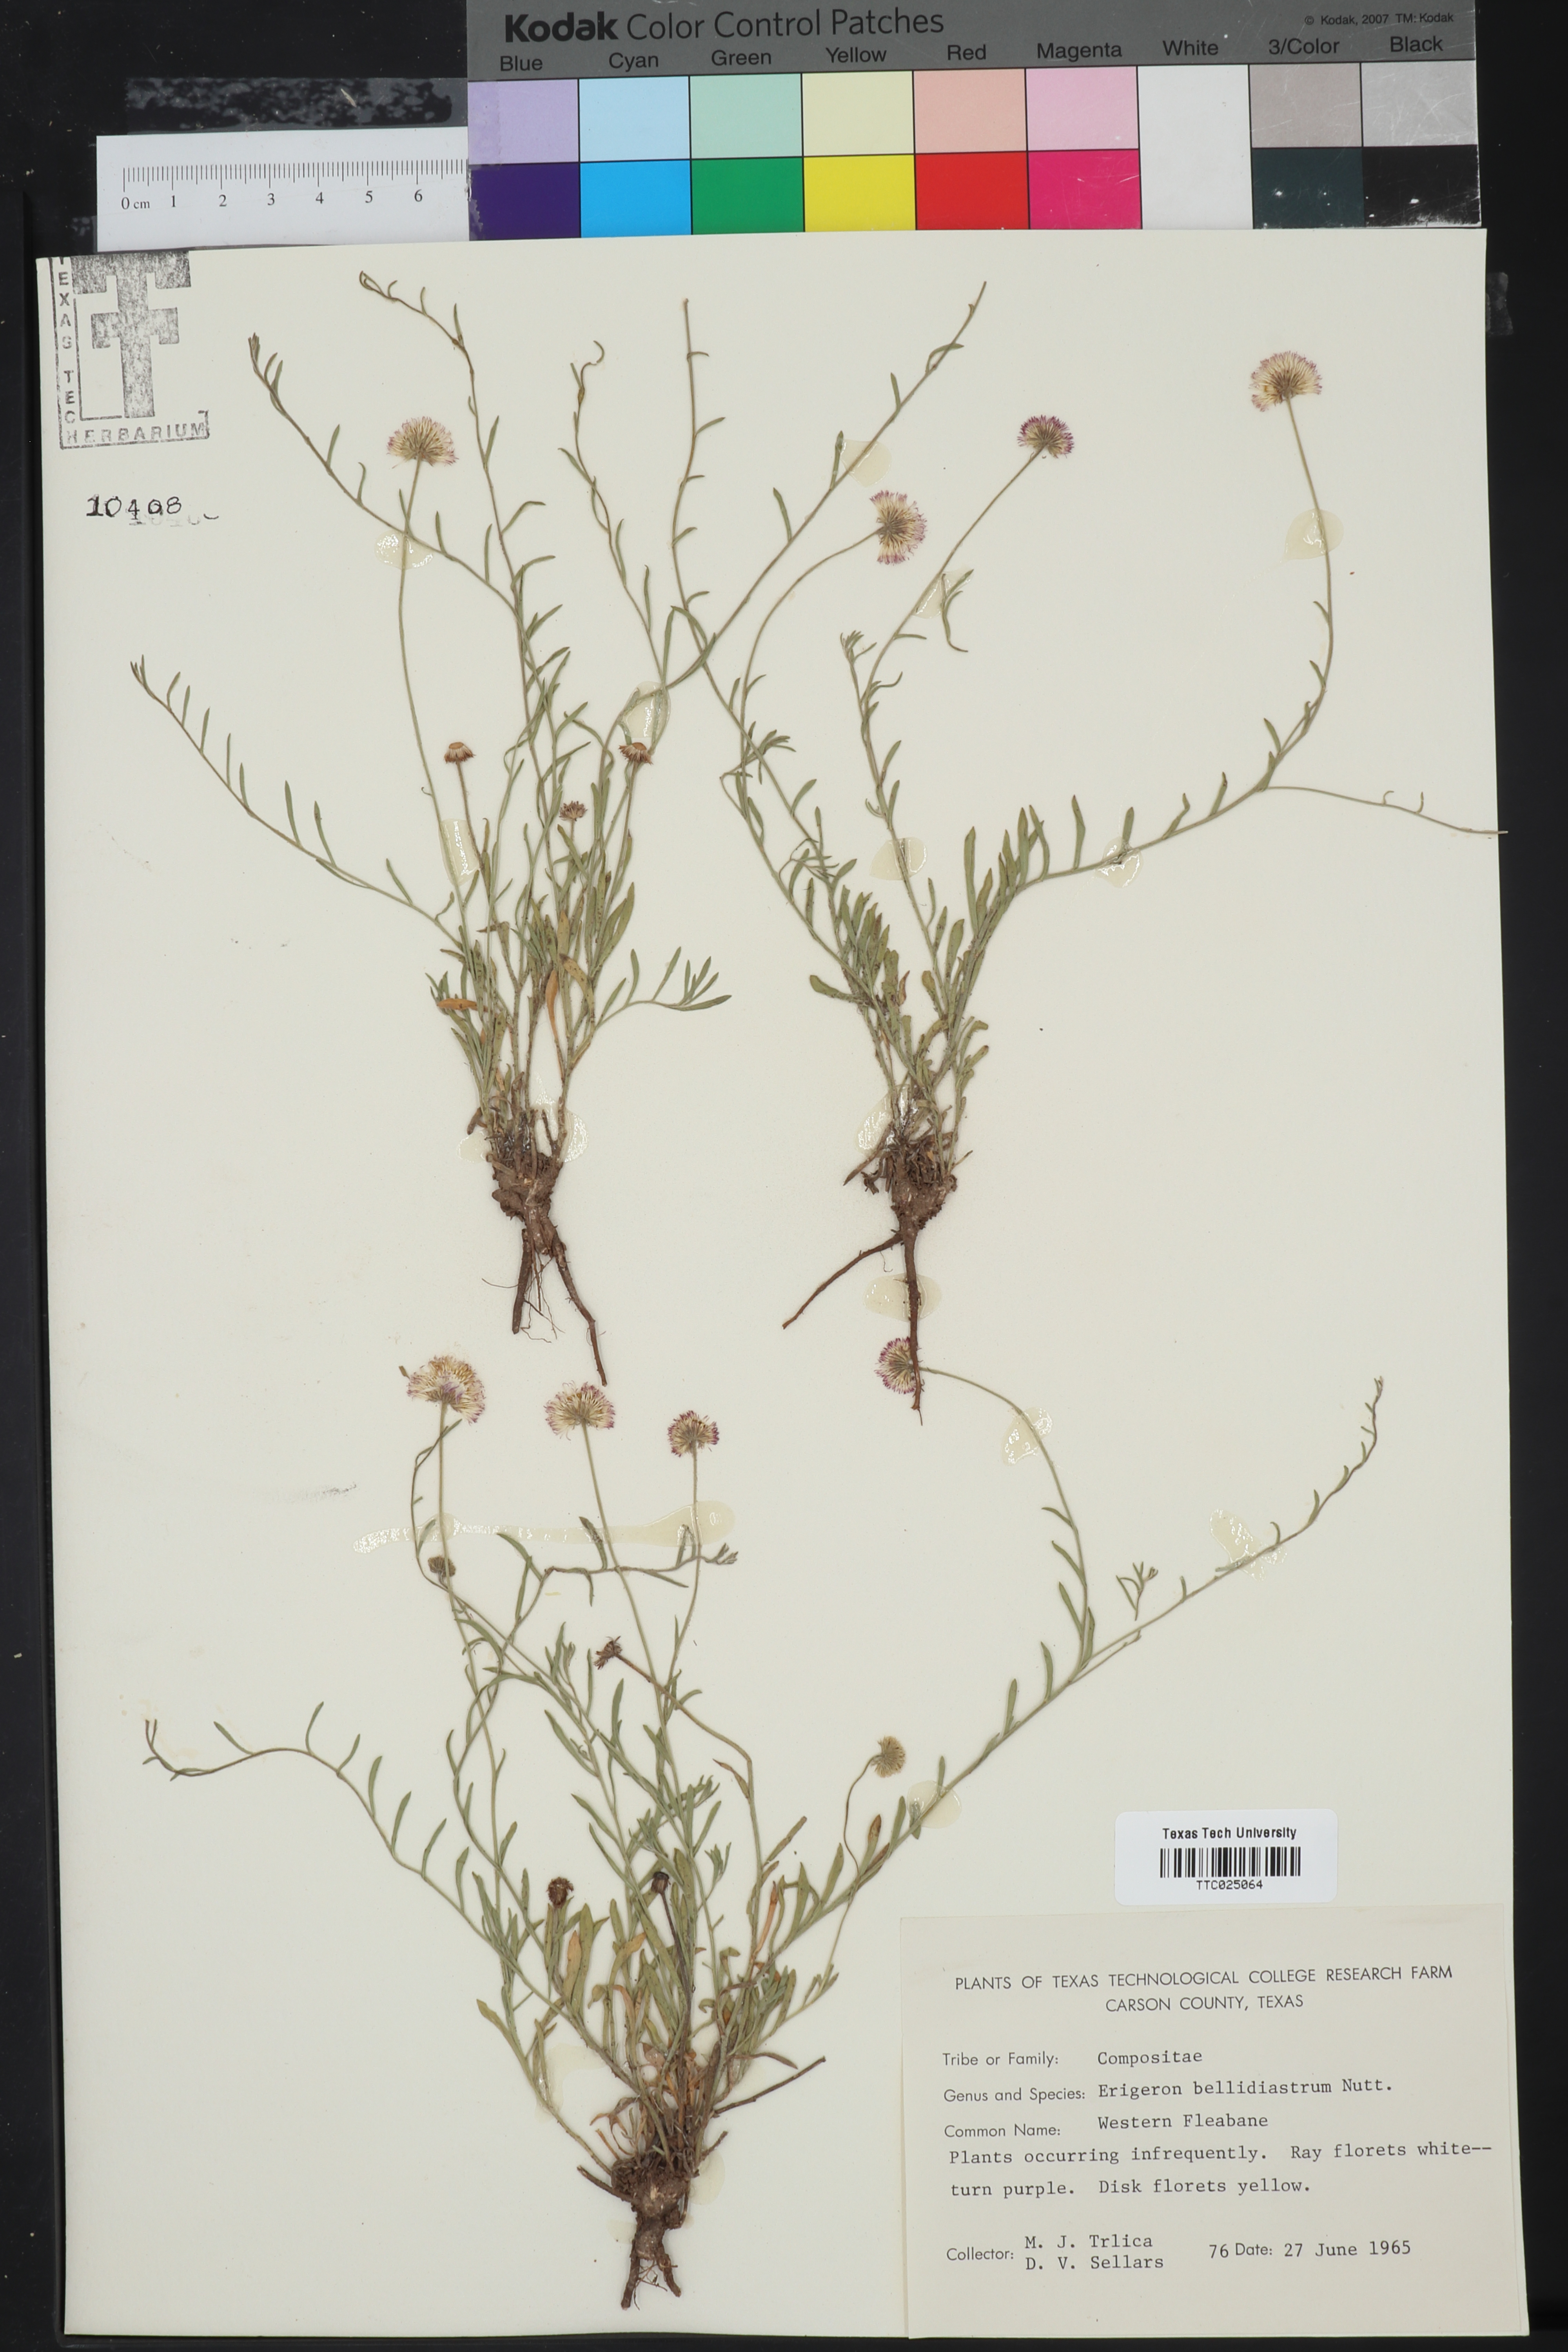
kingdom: Plantae
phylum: Tracheophyta
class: Magnoliopsida
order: Asterales
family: Asteraceae
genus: Erigeron
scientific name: Erigeron bellidiastrum
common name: Sand fleabane
